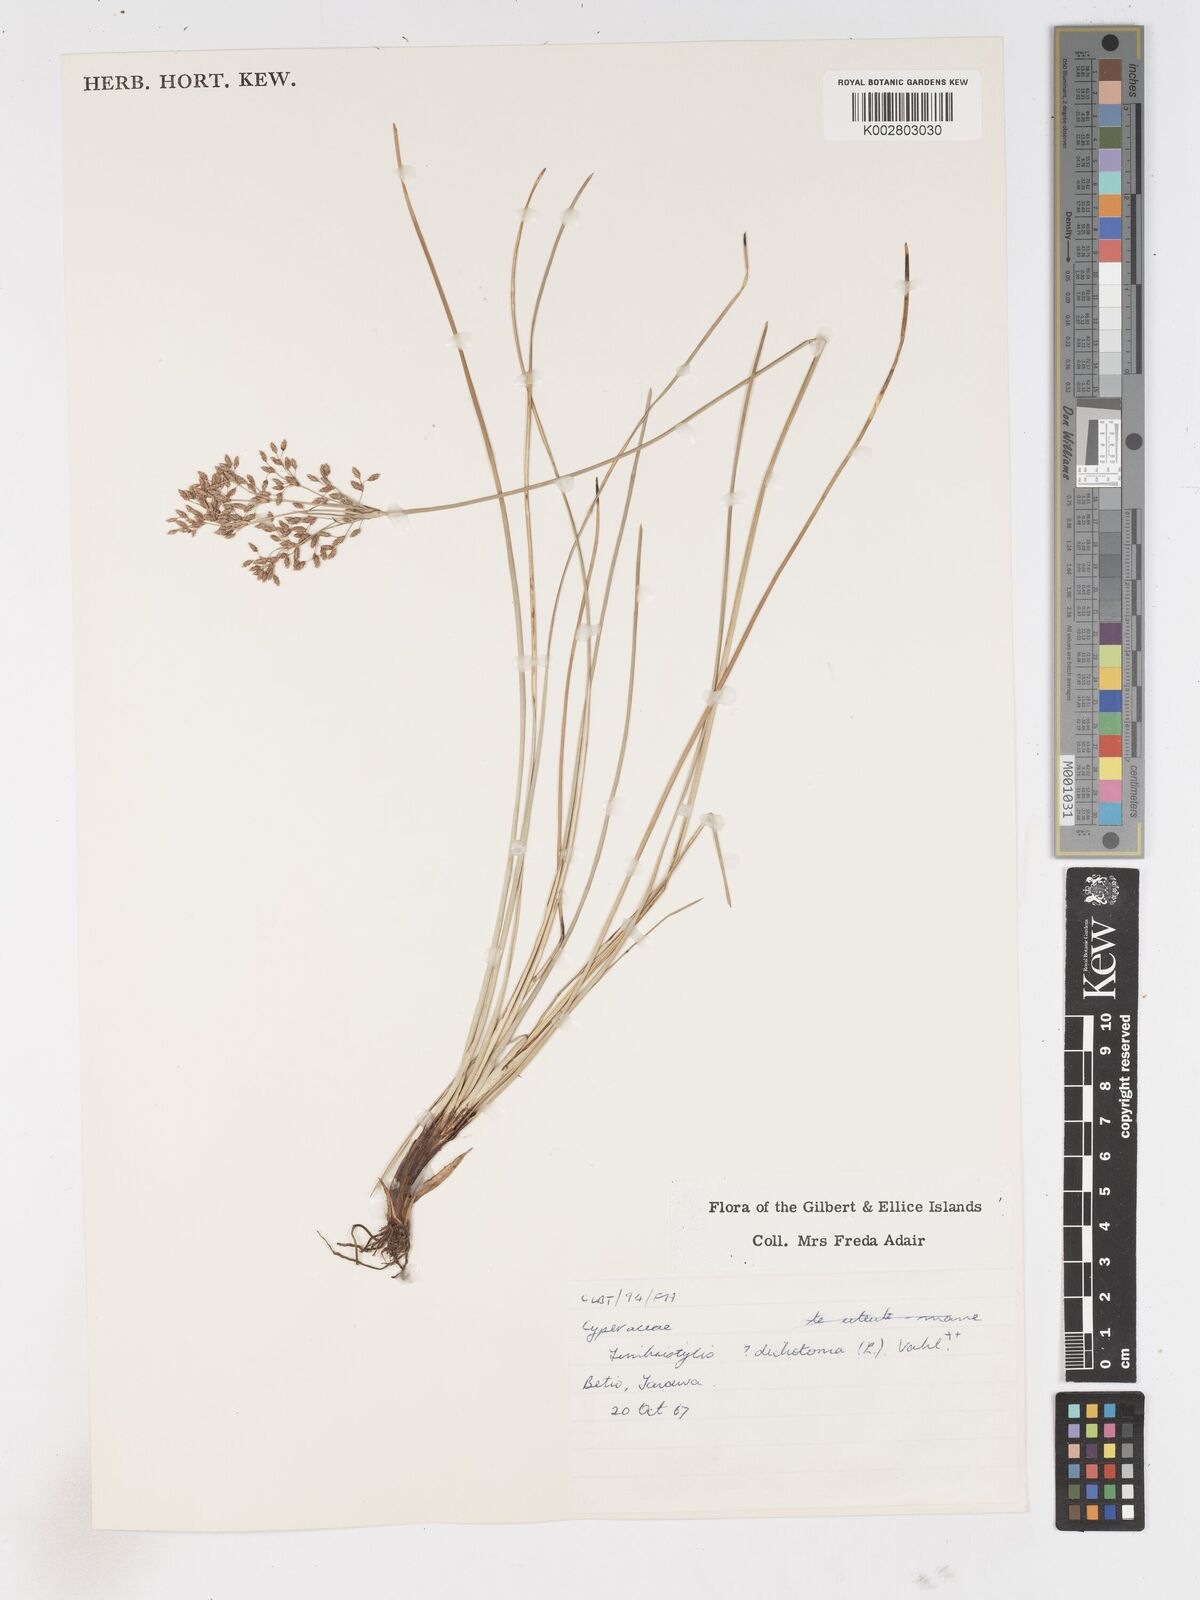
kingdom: Plantae
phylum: Tracheophyta
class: Liliopsida
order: Poales
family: Cyperaceae
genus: Fimbristylis
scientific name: Fimbristylis dichotoma
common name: Forked fimbry
